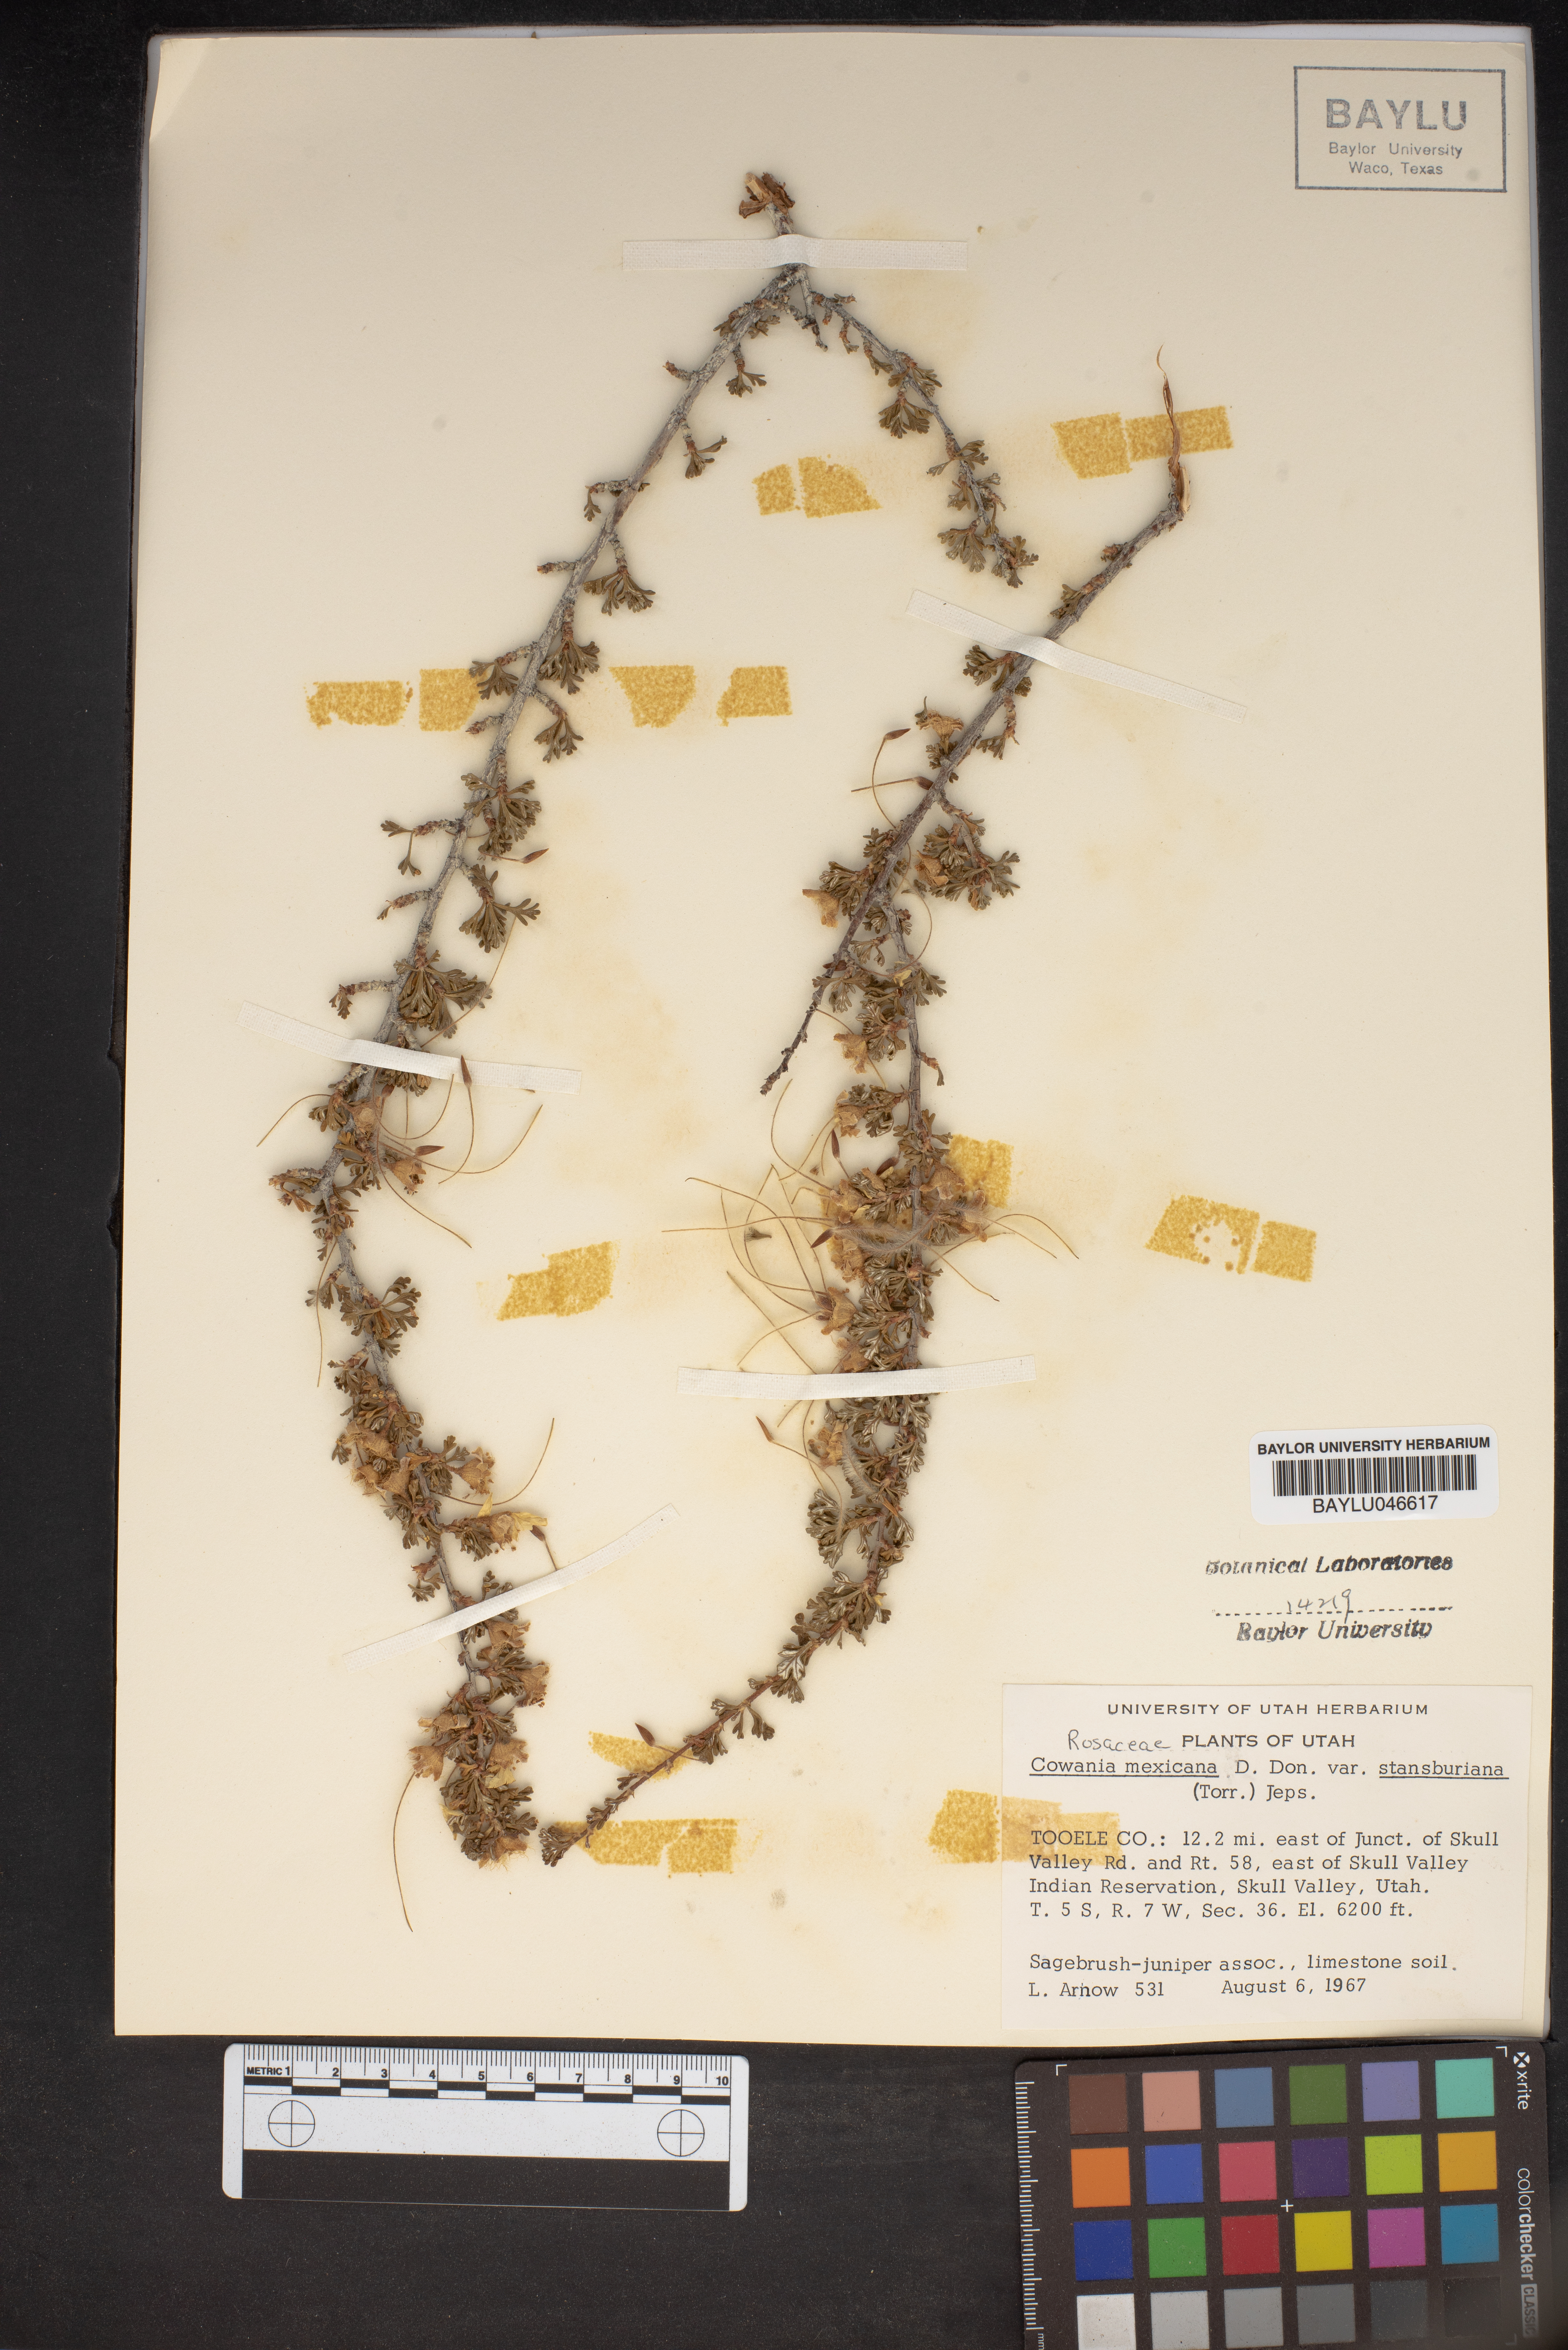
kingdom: Plantae
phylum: Tracheophyta
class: Magnoliopsida
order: Rosales
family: Rosaceae
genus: Purshia
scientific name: Purshia mexicana
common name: Mexican cliffrose
